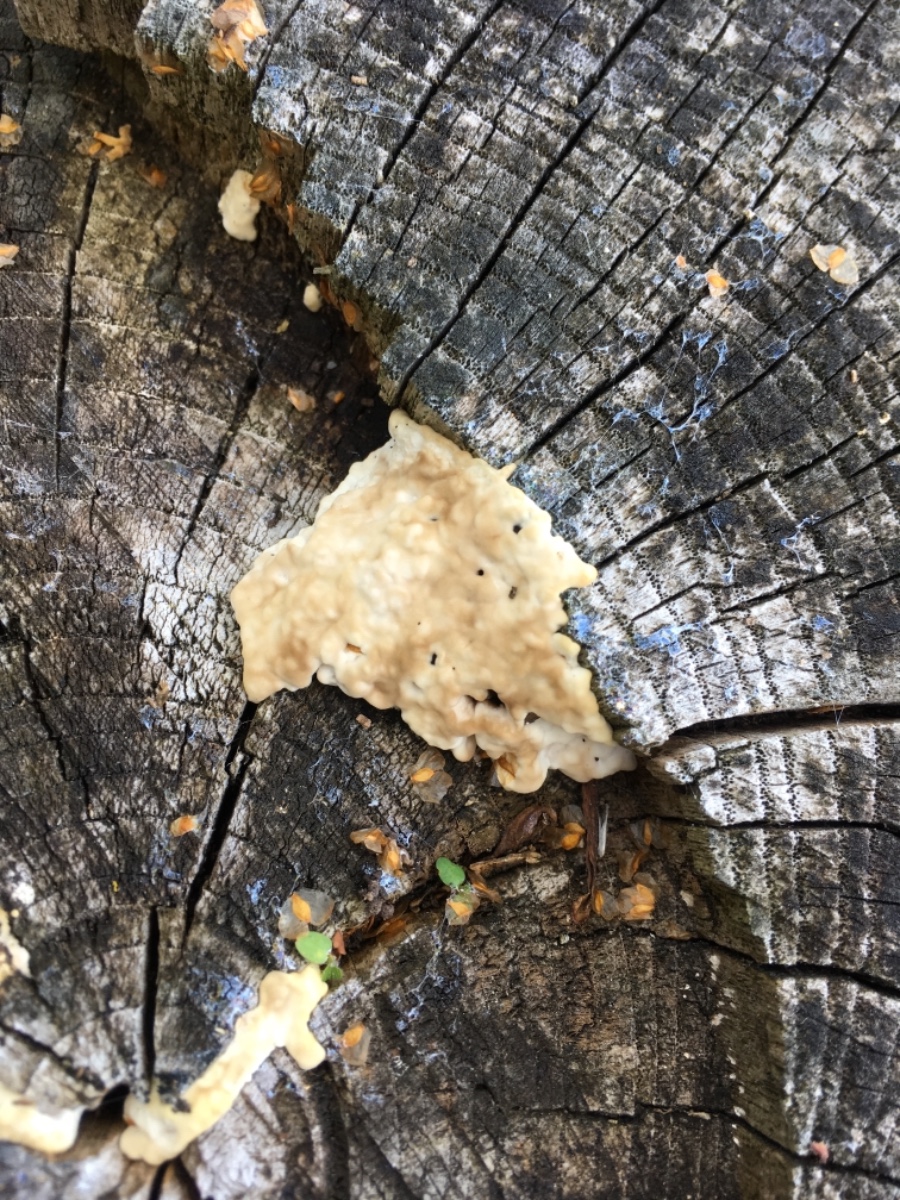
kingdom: Fungi
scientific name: Fungi
